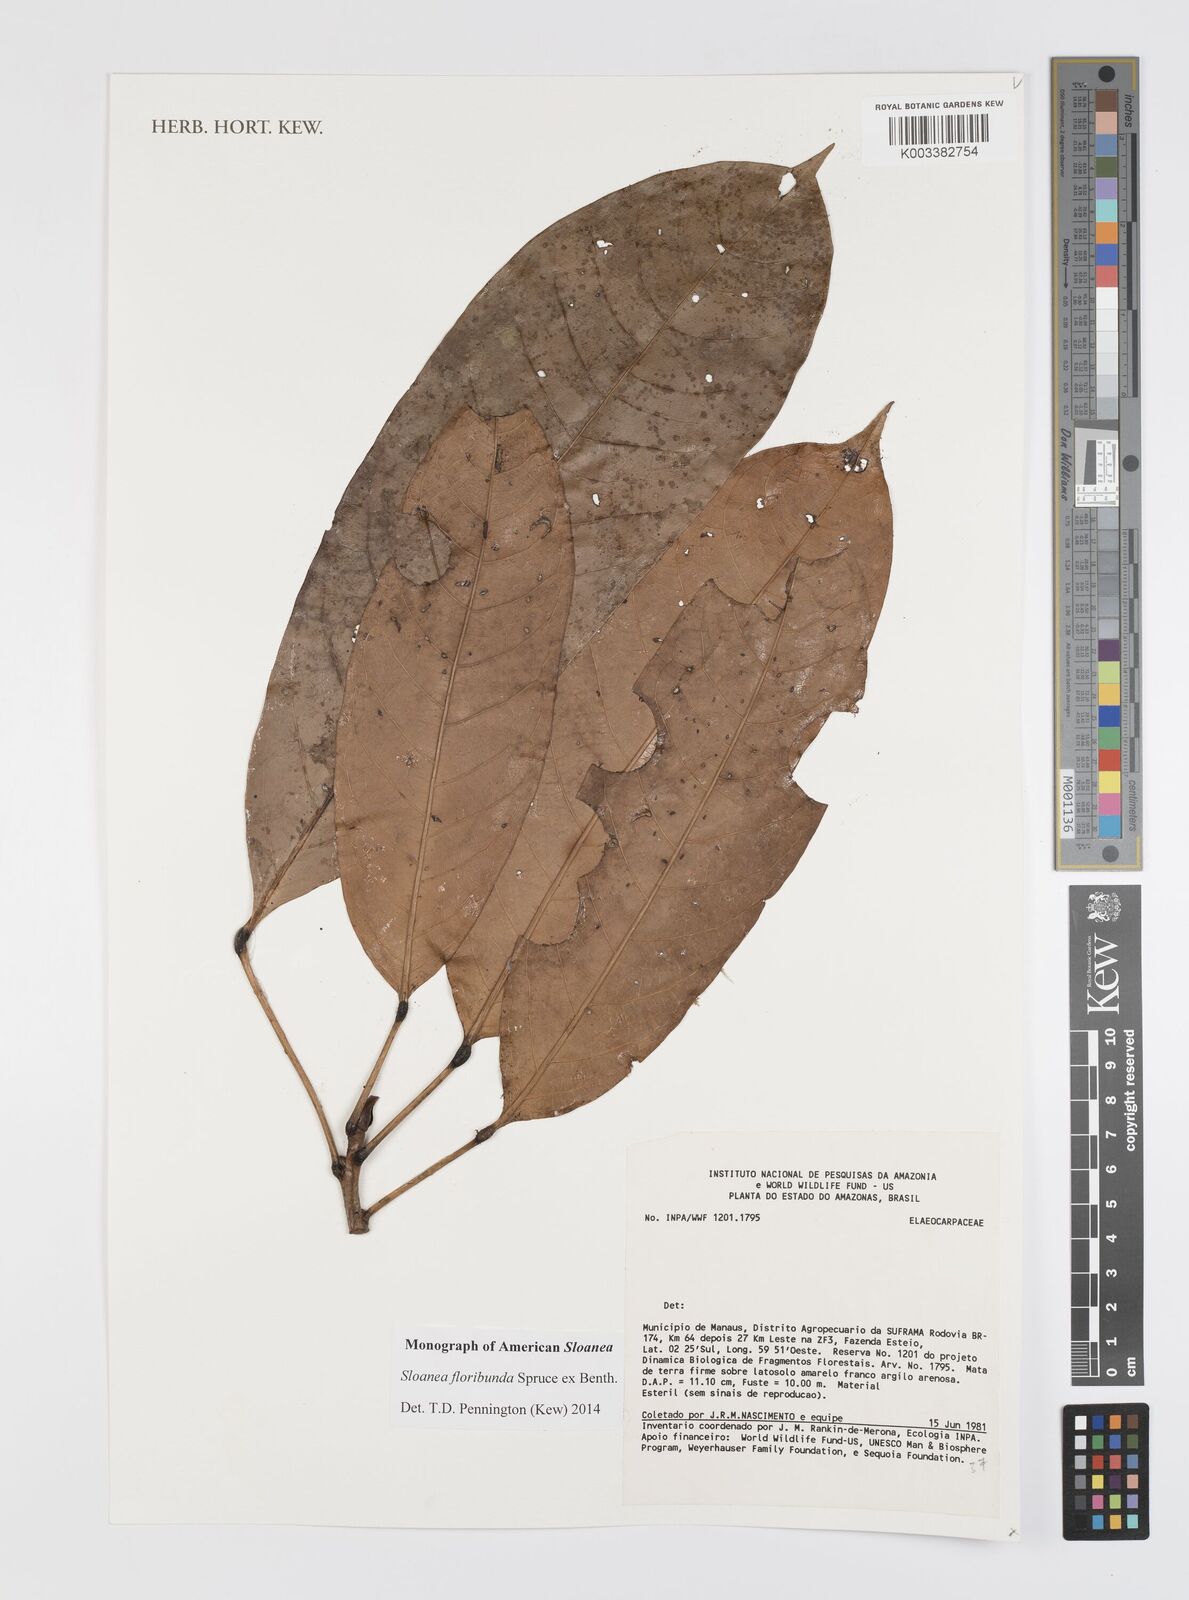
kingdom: Plantae
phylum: Tracheophyta
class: Magnoliopsida
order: Oxalidales
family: Elaeocarpaceae
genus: Sloanea
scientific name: Sloanea floribunda
